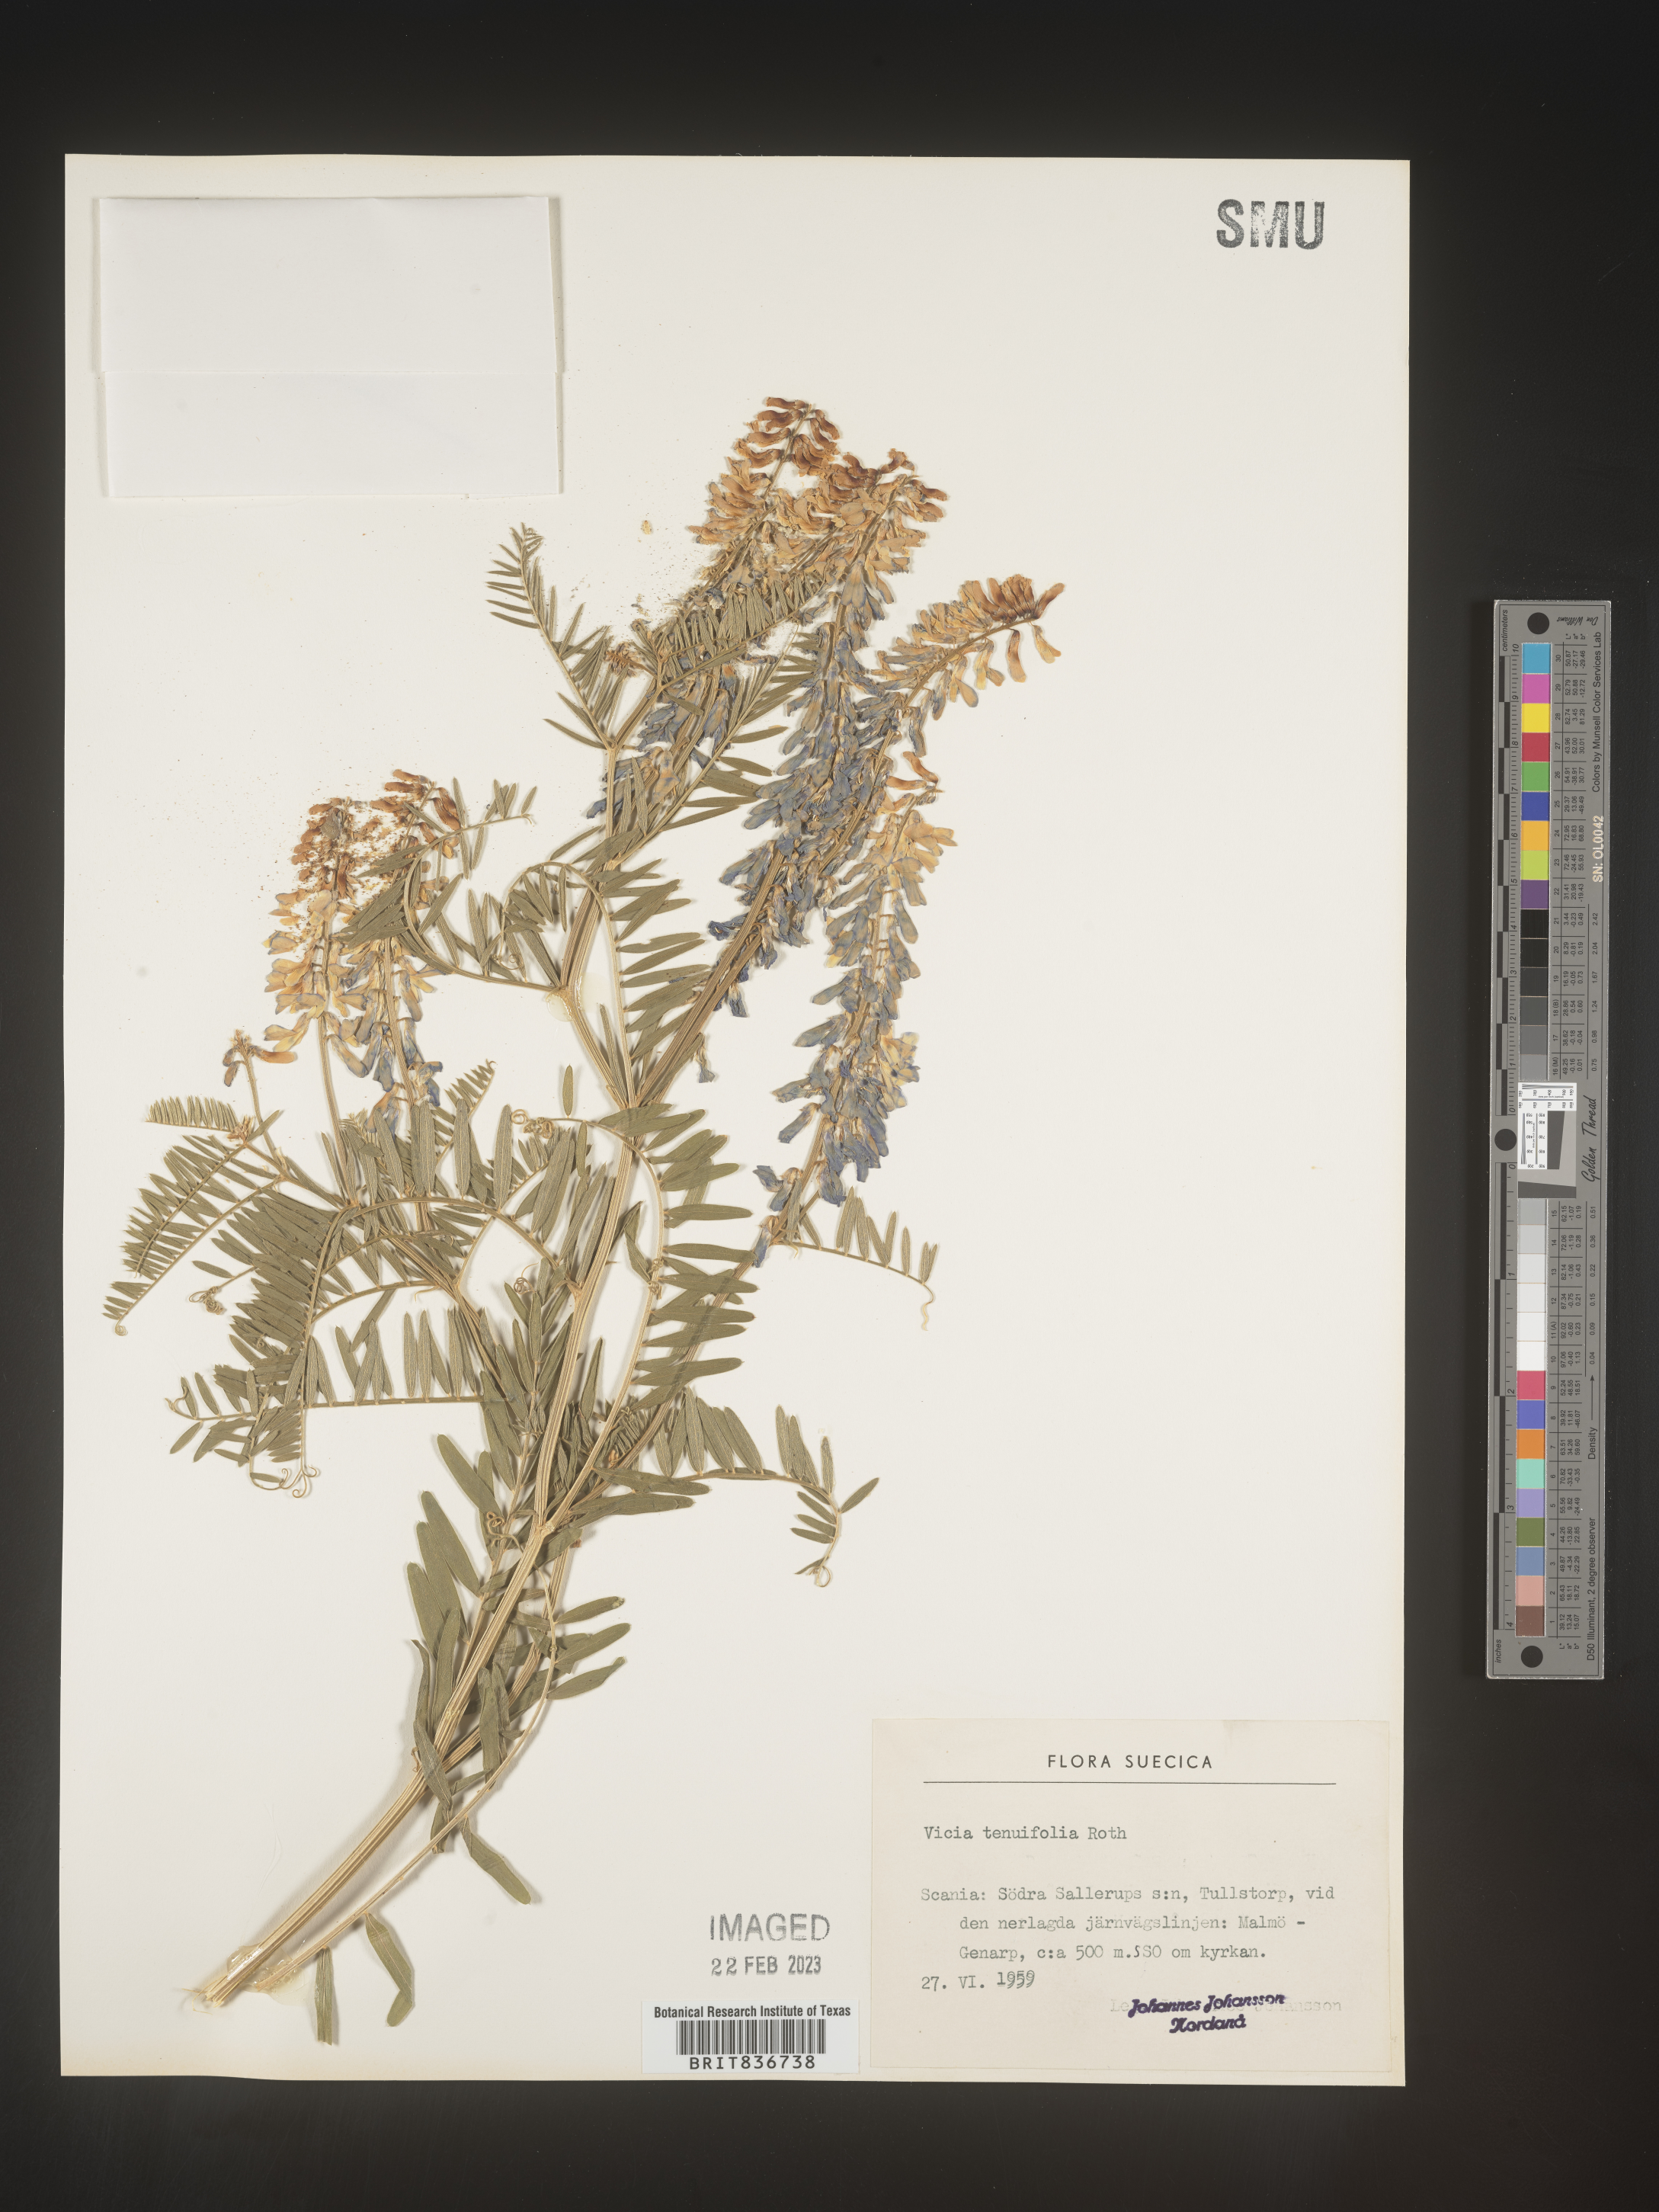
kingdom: Plantae
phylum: Tracheophyta
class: Magnoliopsida
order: Fabales
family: Fabaceae
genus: Vicia
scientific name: Vicia
